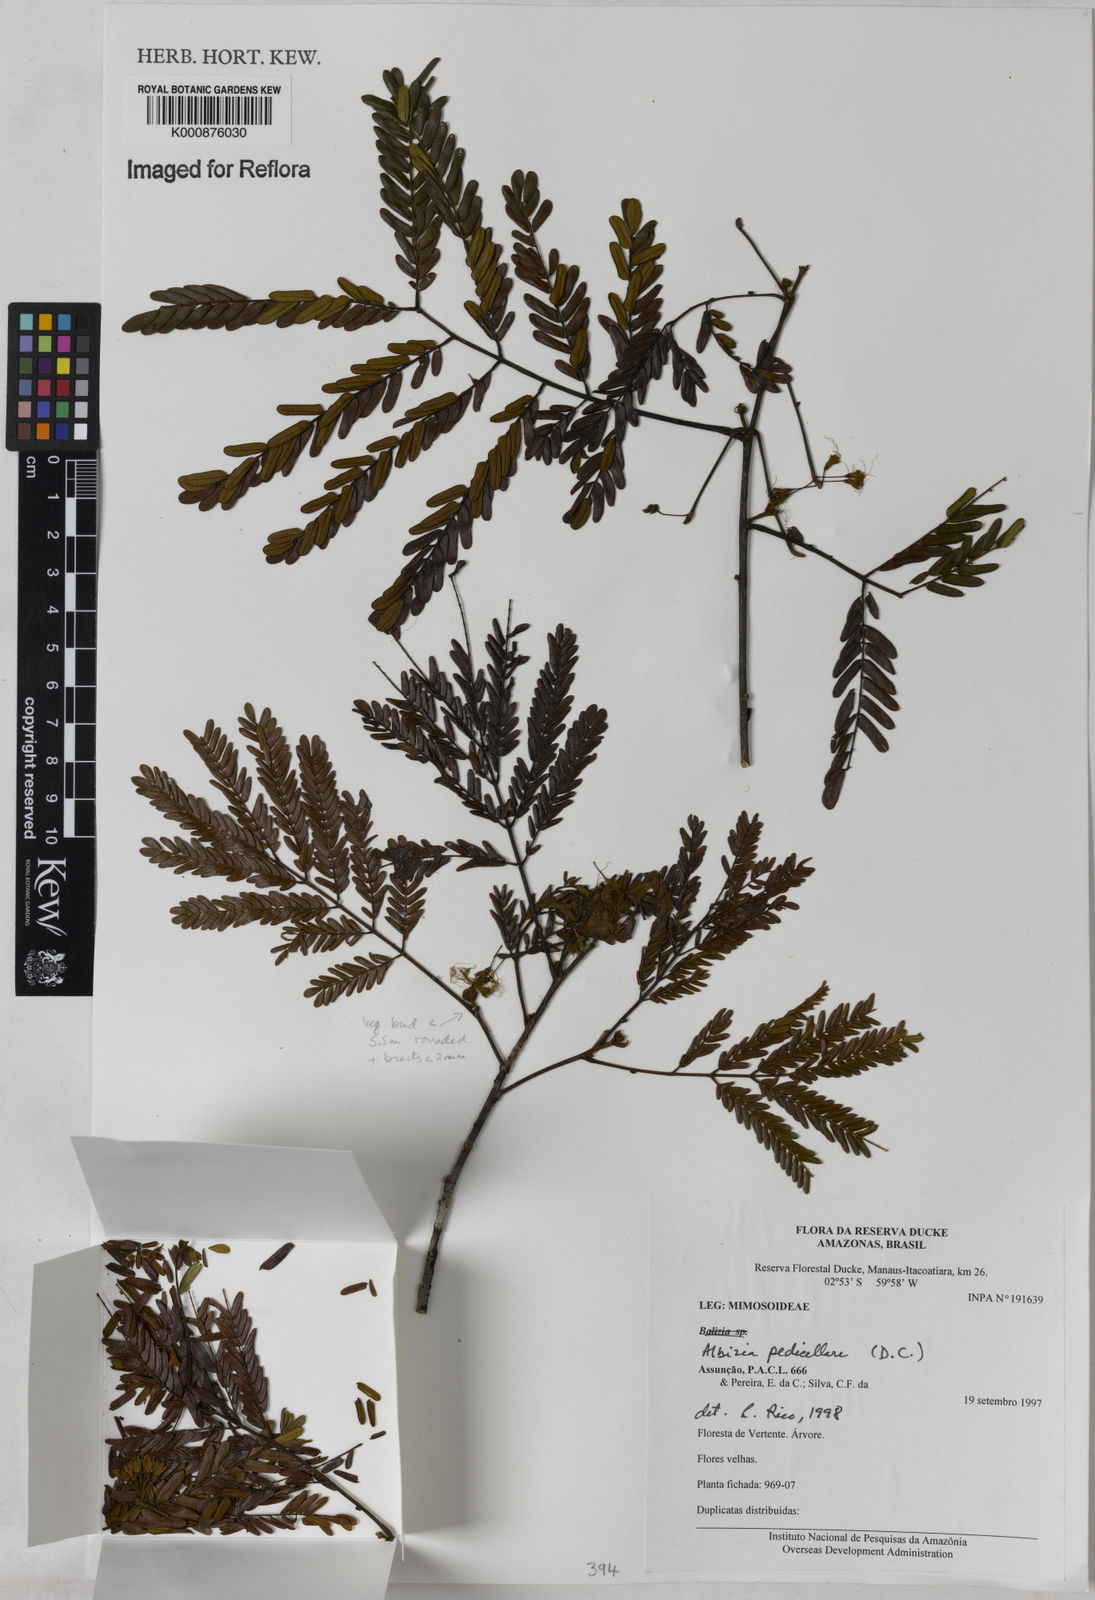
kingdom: Plantae
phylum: Tracheophyta
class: Magnoliopsida
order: Fabales
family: Fabaceae
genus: Balizia
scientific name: Balizia pedicellaris
